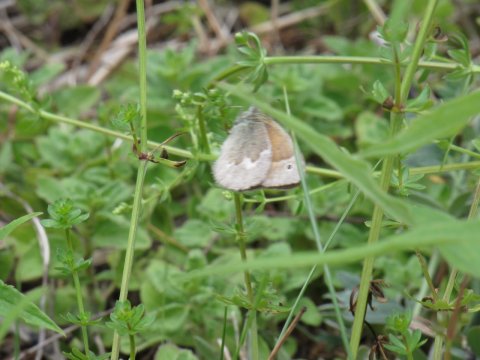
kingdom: Animalia
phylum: Arthropoda
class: Insecta
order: Lepidoptera
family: Nymphalidae
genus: Coenonympha
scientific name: Coenonympha tullia
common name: Large Heath
